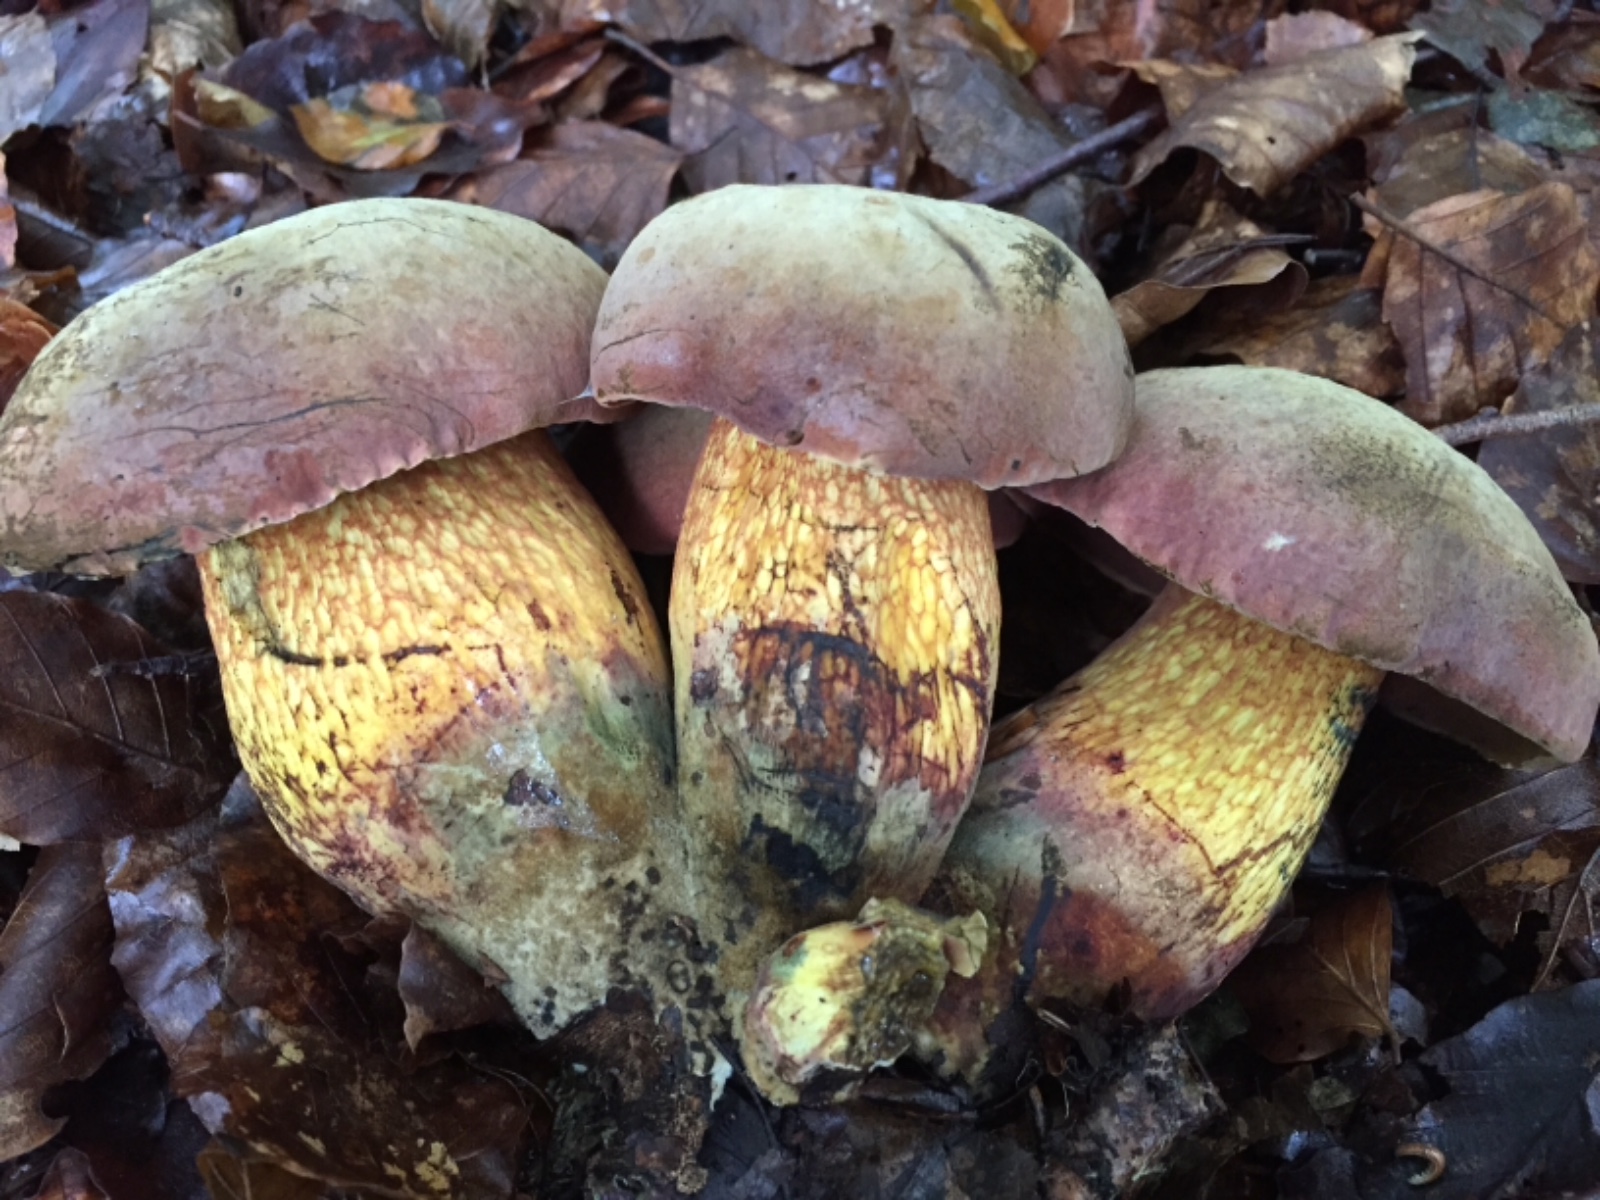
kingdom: Fungi
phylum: Basidiomycota
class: Agaricomycetes
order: Boletales
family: Boletaceae
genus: Suillellus
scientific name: Suillellus luridus
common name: netstokket indigorørhat
